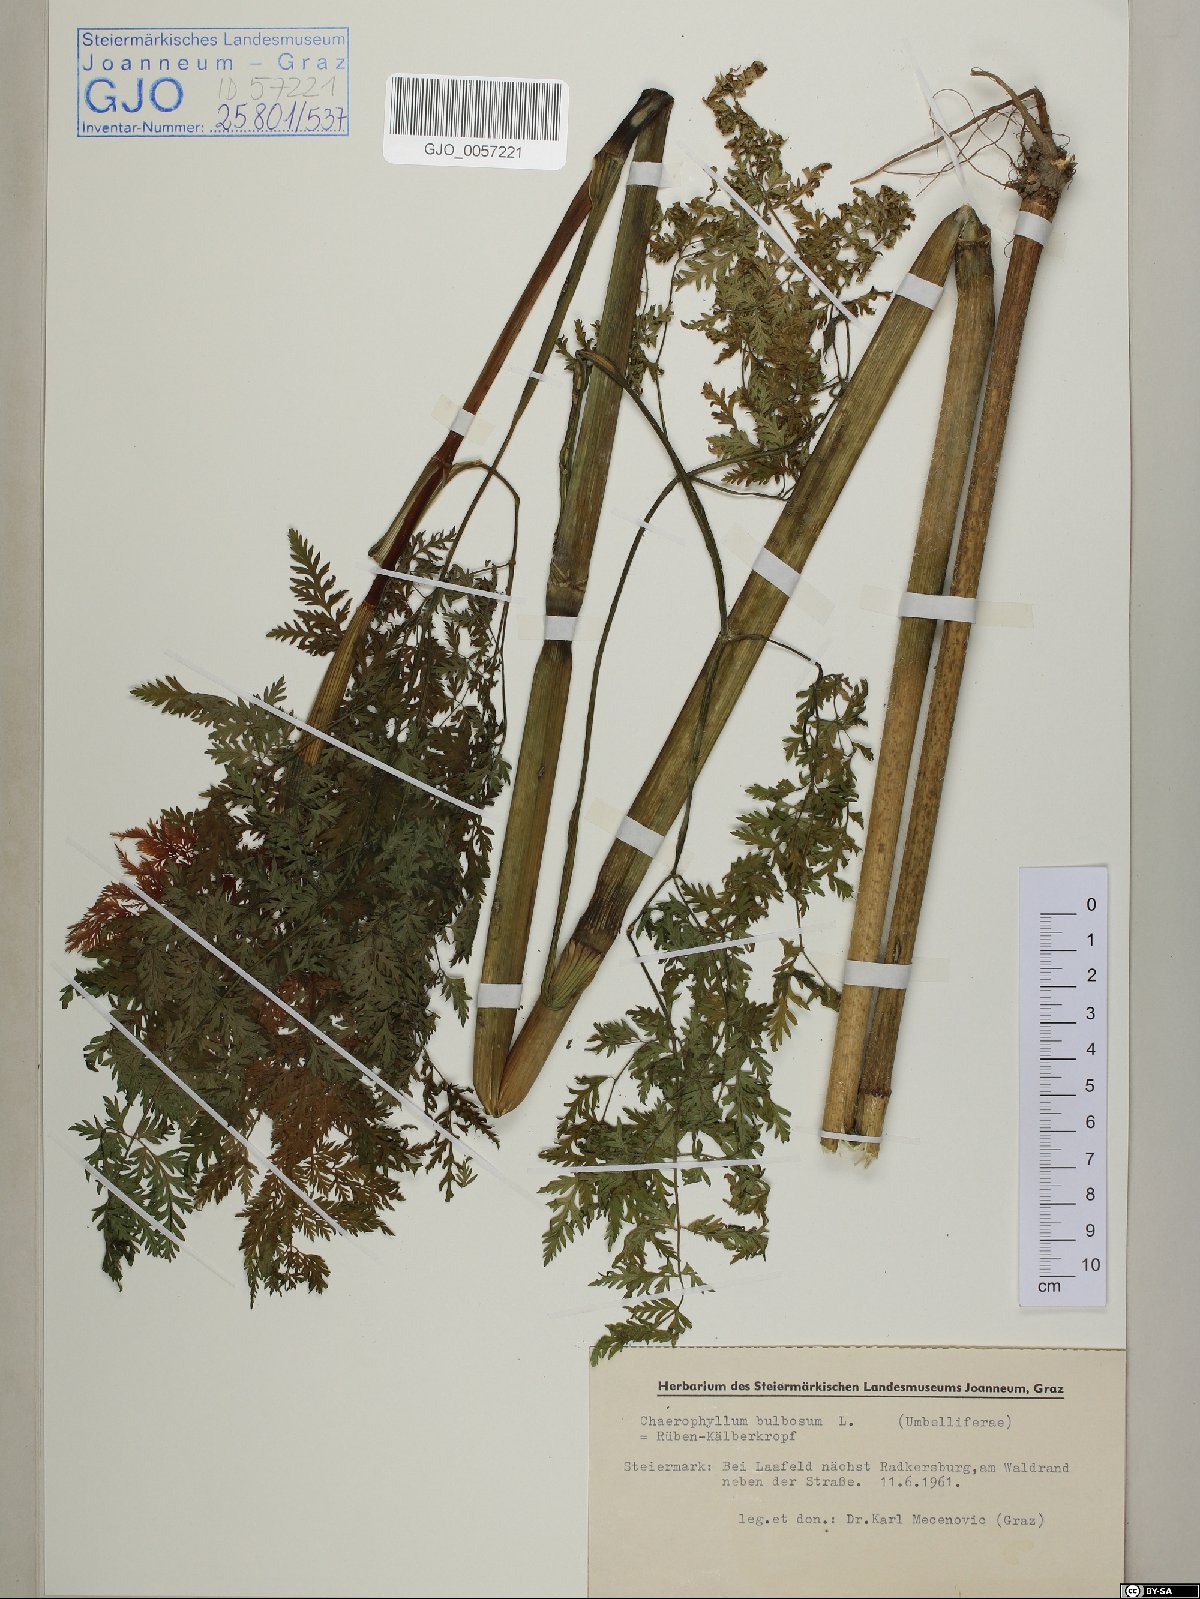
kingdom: Plantae
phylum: Tracheophyta
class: Magnoliopsida
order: Apiales
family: Apiaceae
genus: Chaerophyllum
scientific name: Chaerophyllum bulbosum
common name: Bulbous chervil
